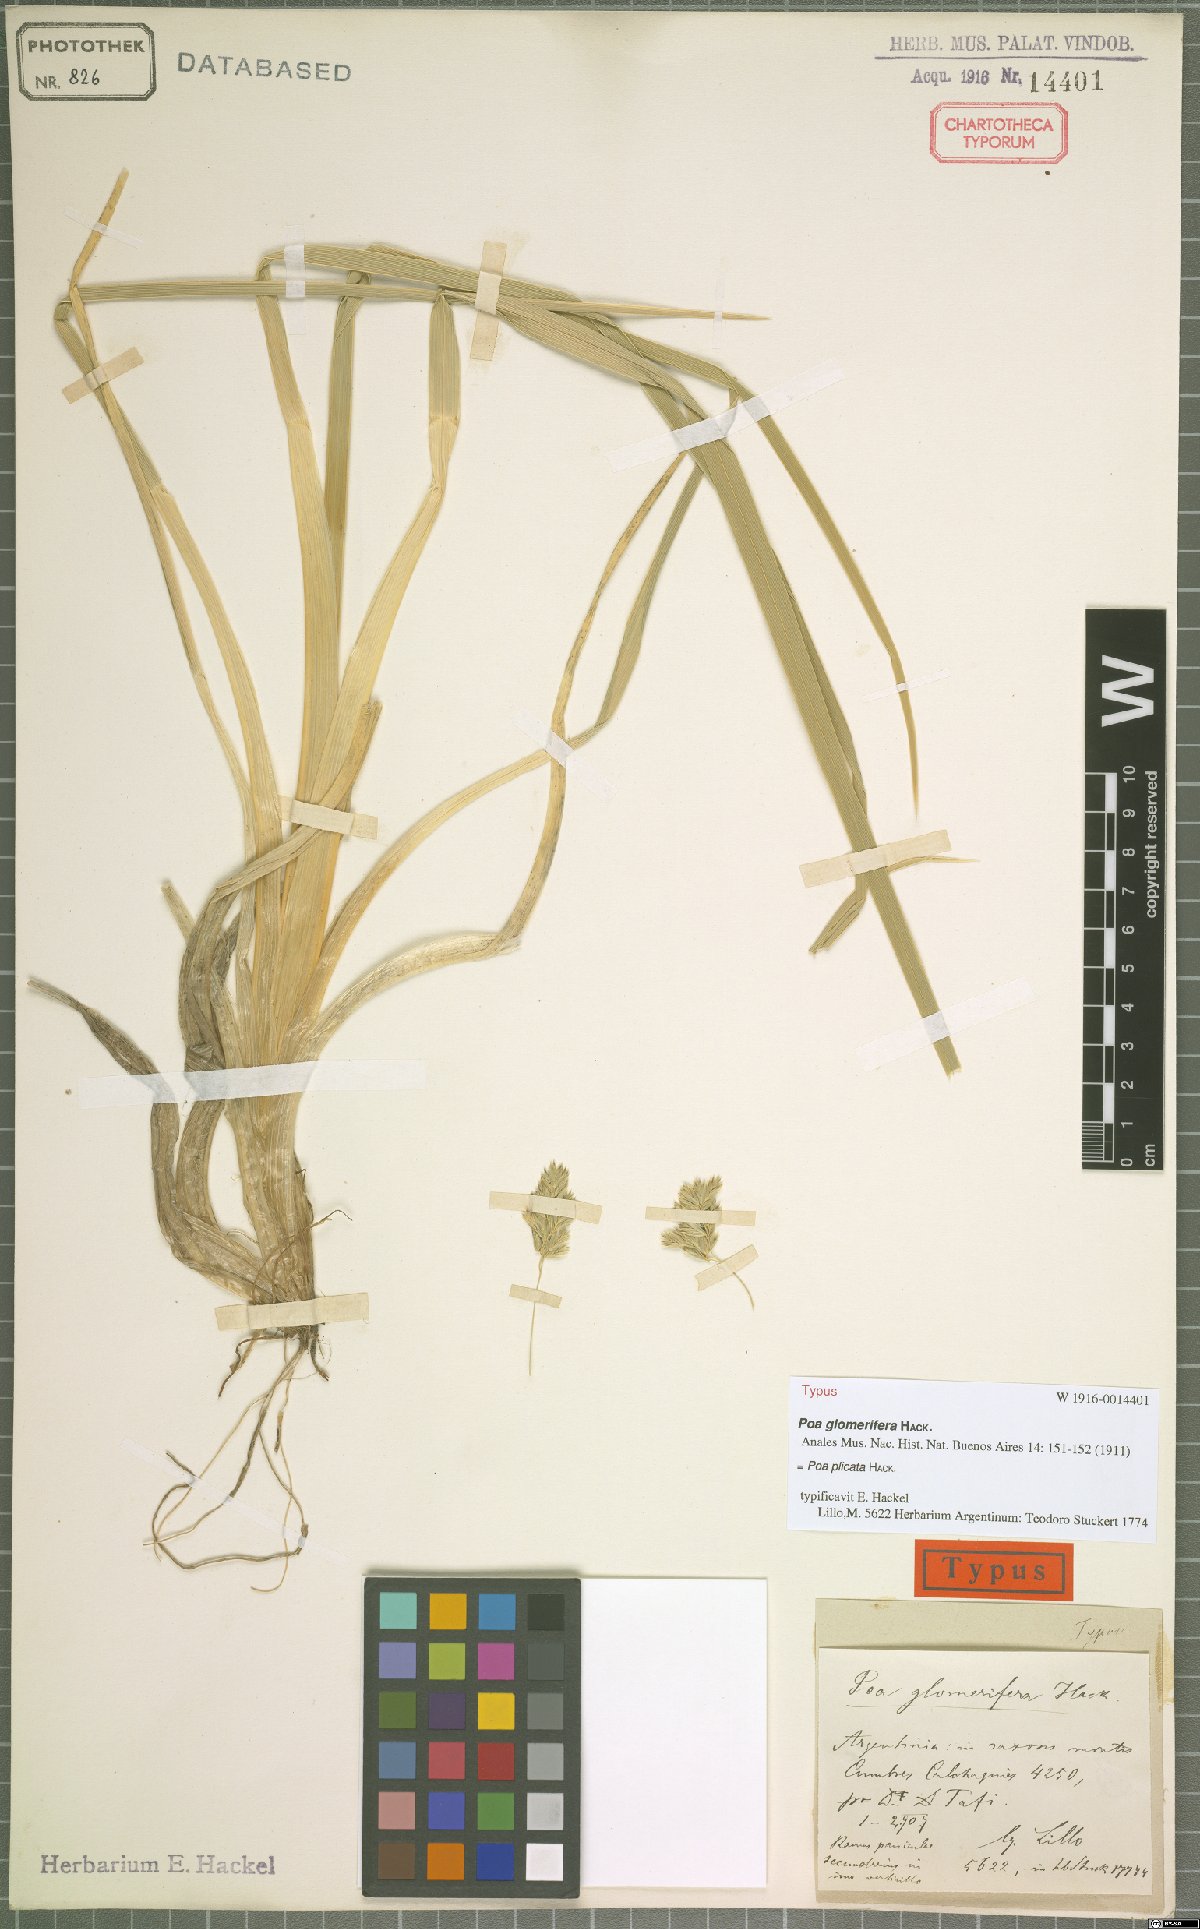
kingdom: Plantae
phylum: Tracheophyta
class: Liliopsida
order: Poales
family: Poaceae
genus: Poa
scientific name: Poa plicata
